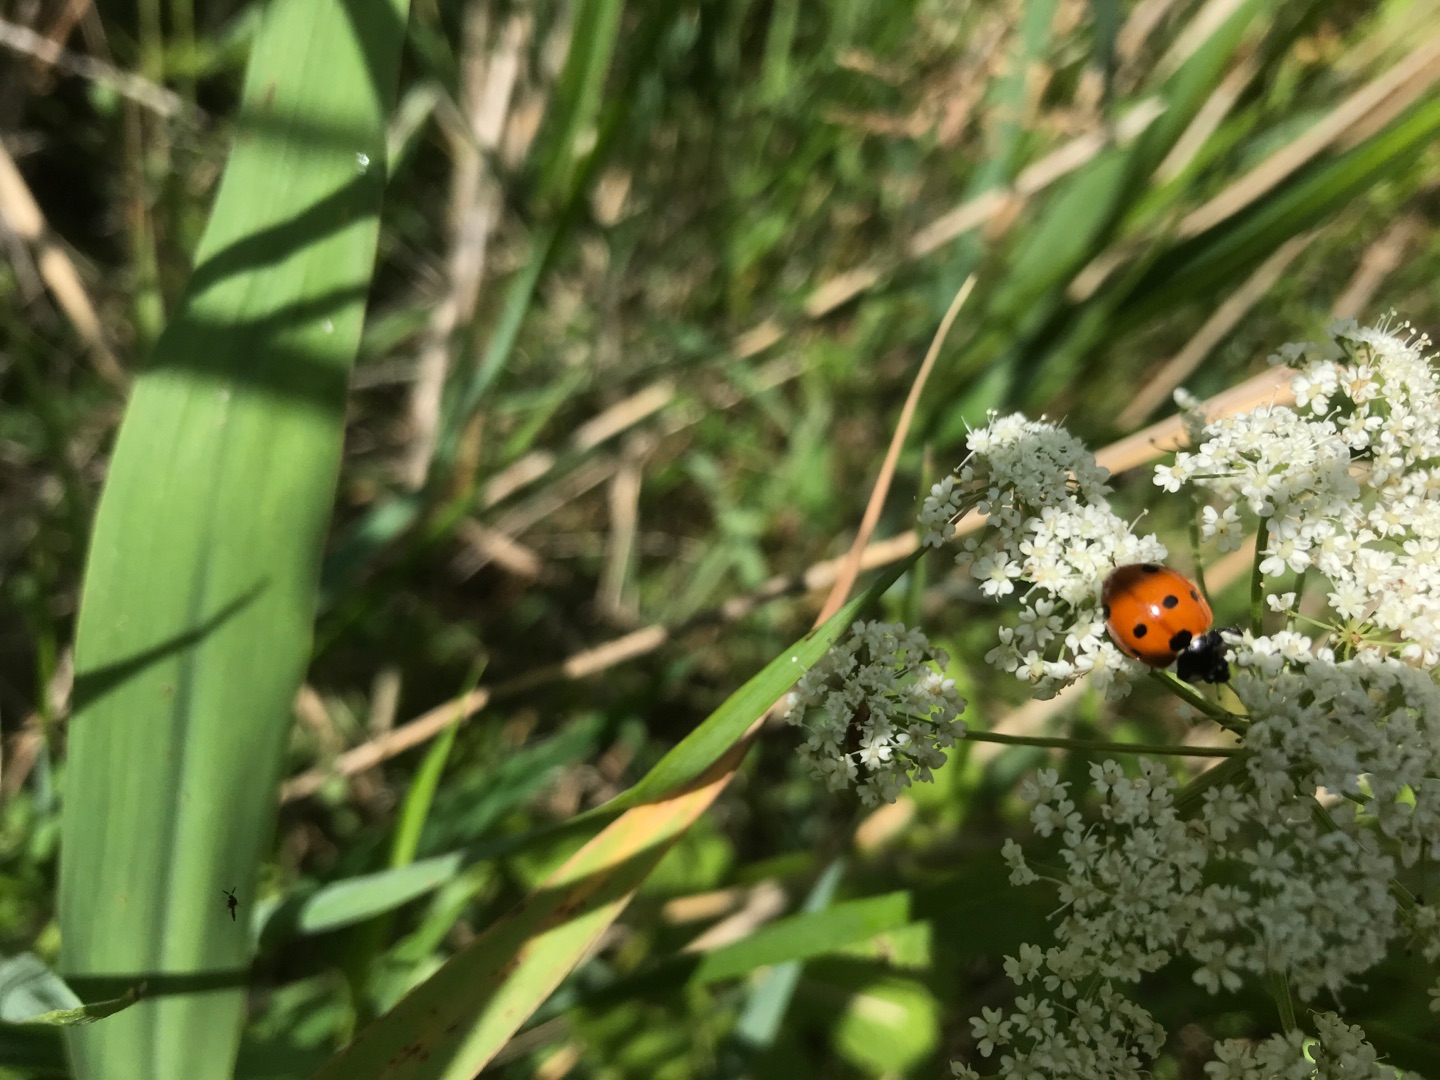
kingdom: Animalia
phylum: Arthropoda
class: Insecta
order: Coleoptera
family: Coccinellidae
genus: Coccinella
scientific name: Coccinella septempunctata
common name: Syvplettet mariehøne
